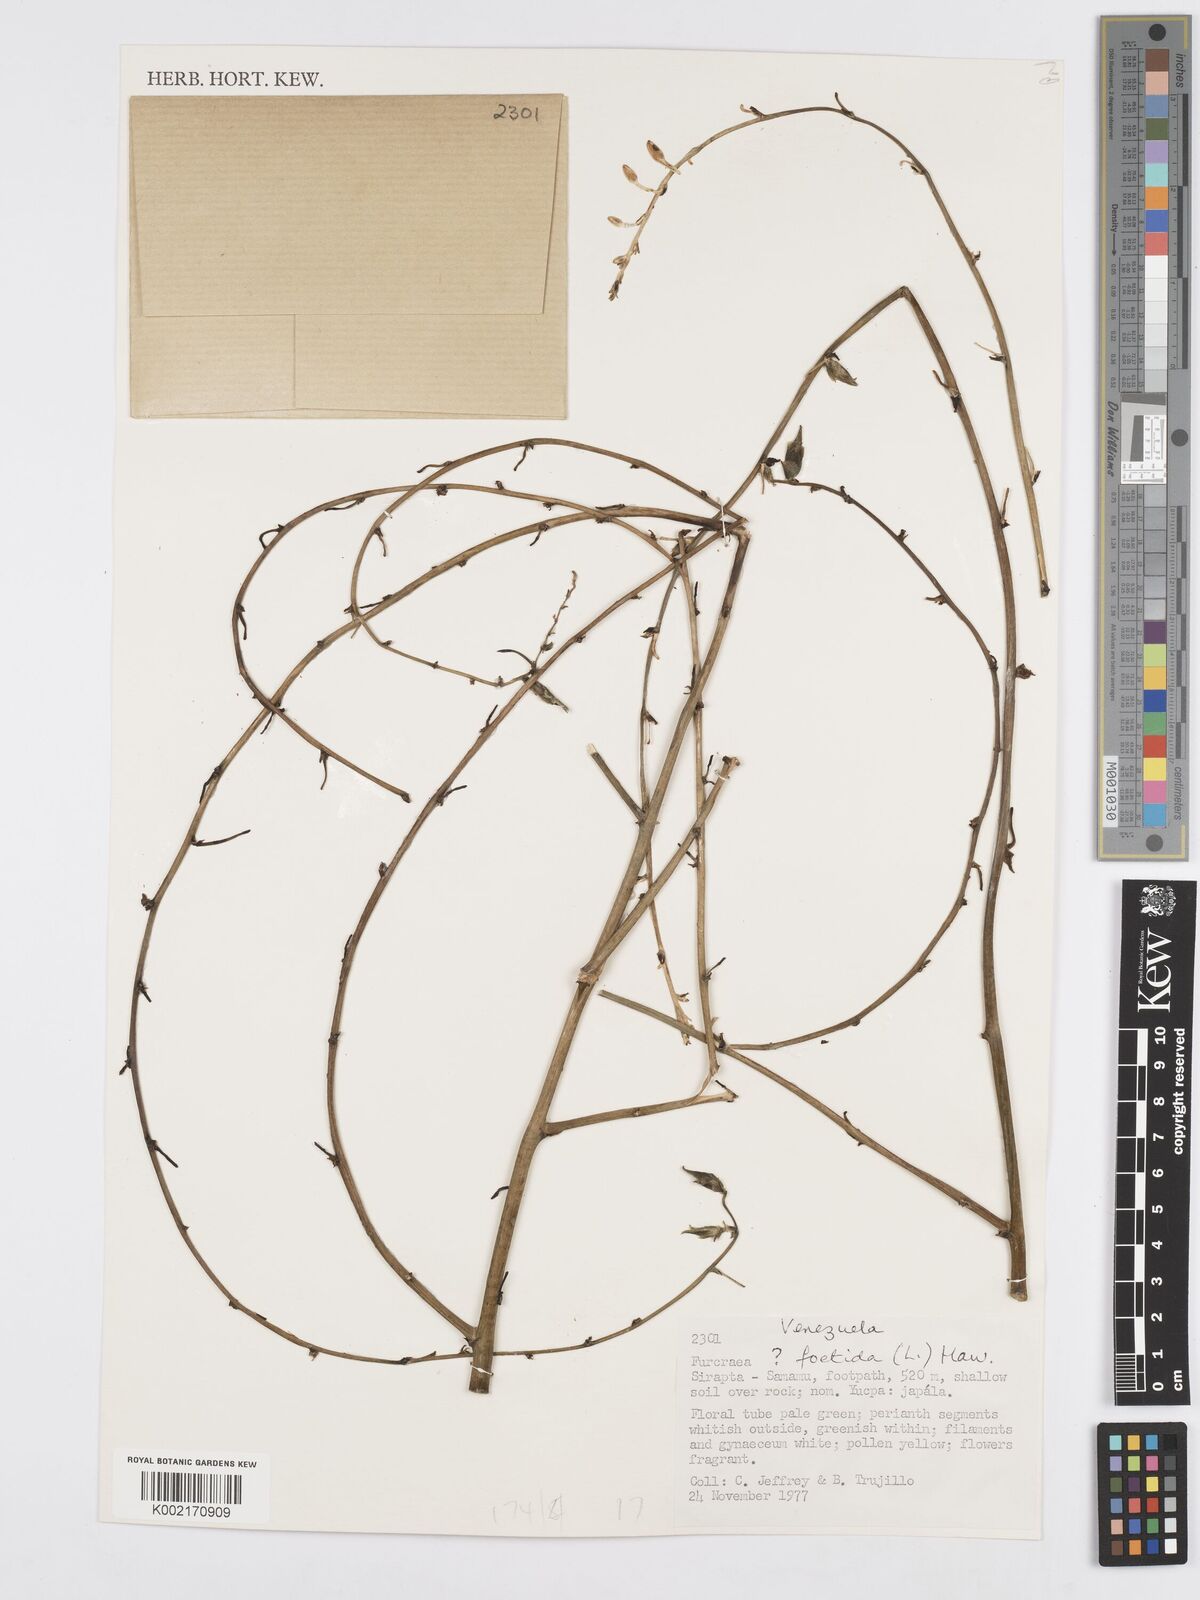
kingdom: Plantae
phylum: Tracheophyta
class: Liliopsida
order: Asparagales
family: Asparagaceae
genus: Furcraea
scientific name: Furcraea foetida
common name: Mauritius hemp
